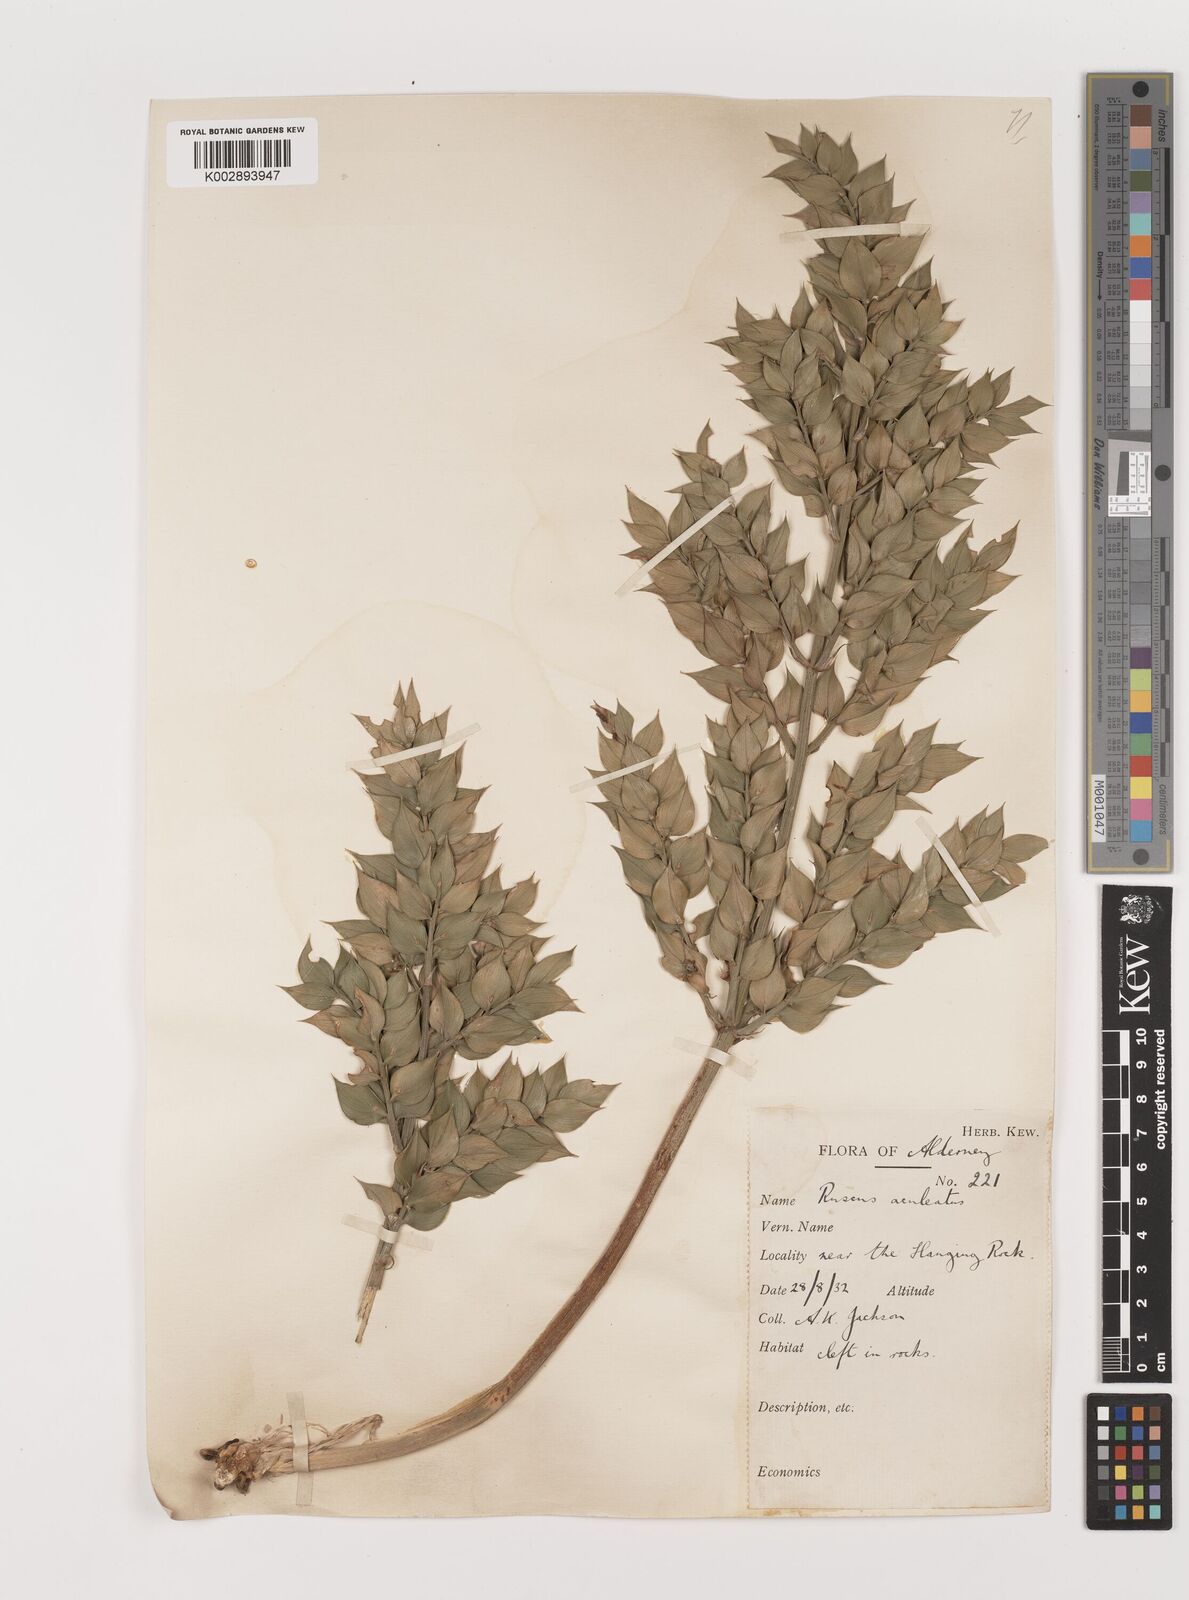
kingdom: Plantae
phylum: Tracheophyta
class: Liliopsida
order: Asparagales
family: Asparagaceae
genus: Ruscus
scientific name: Ruscus aculeatus
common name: Butcher's-broom
